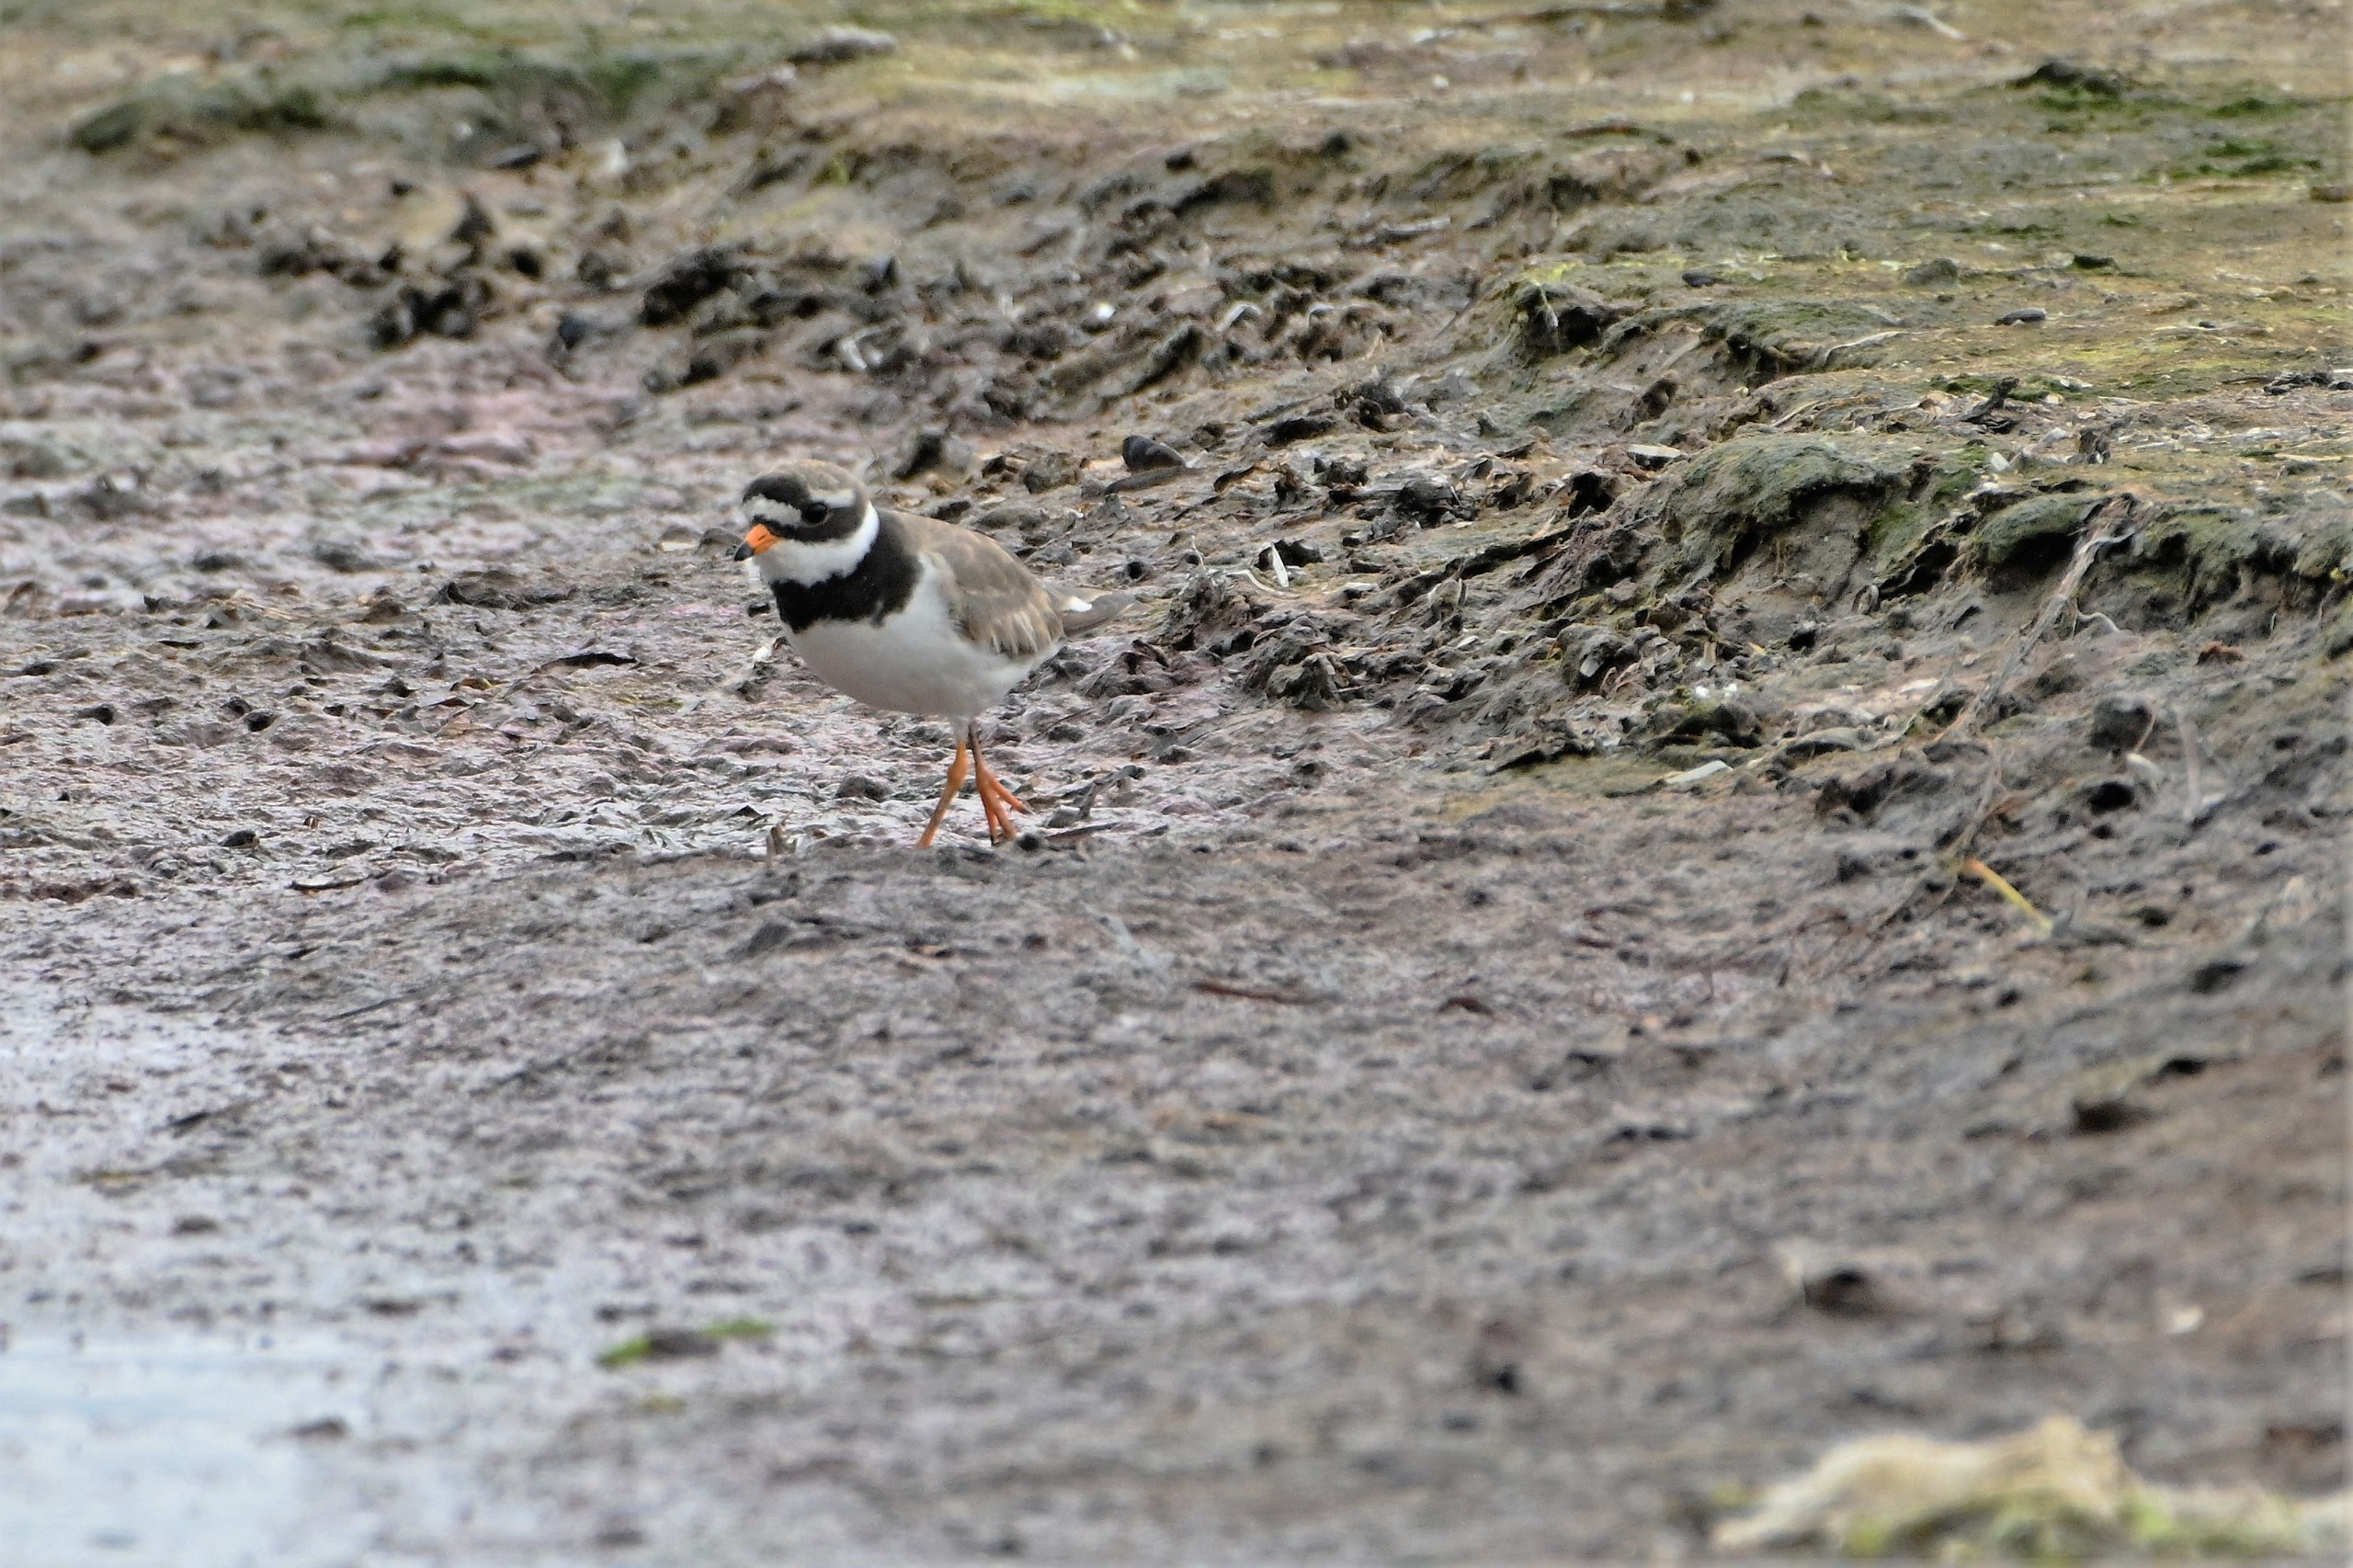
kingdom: Animalia
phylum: Chordata
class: Aves
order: Charadriiformes
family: Charadriidae
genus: Charadrius
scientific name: Charadrius hiaticula
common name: Stor præstekrave
